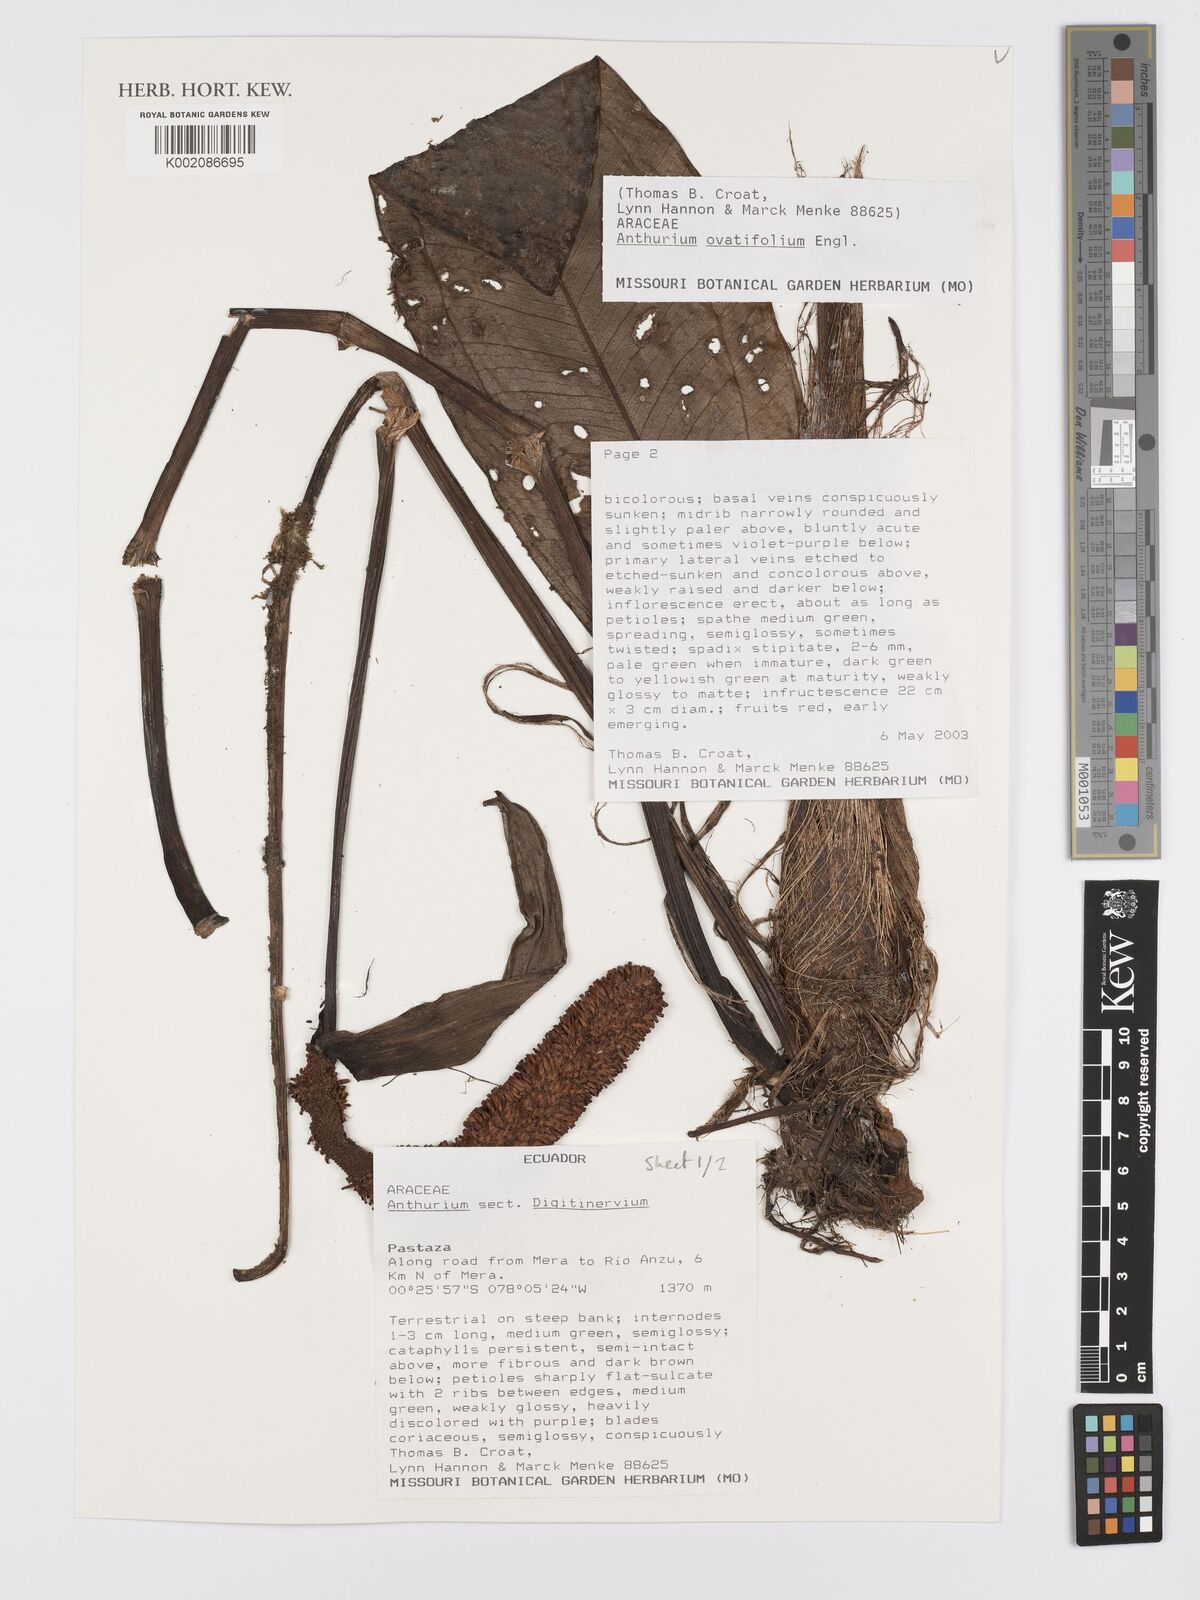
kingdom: Plantae
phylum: Tracheophyta
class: Liliopsida
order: Alismatales
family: Araceae
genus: Anthurium
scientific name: Anthurium ovatifolium
